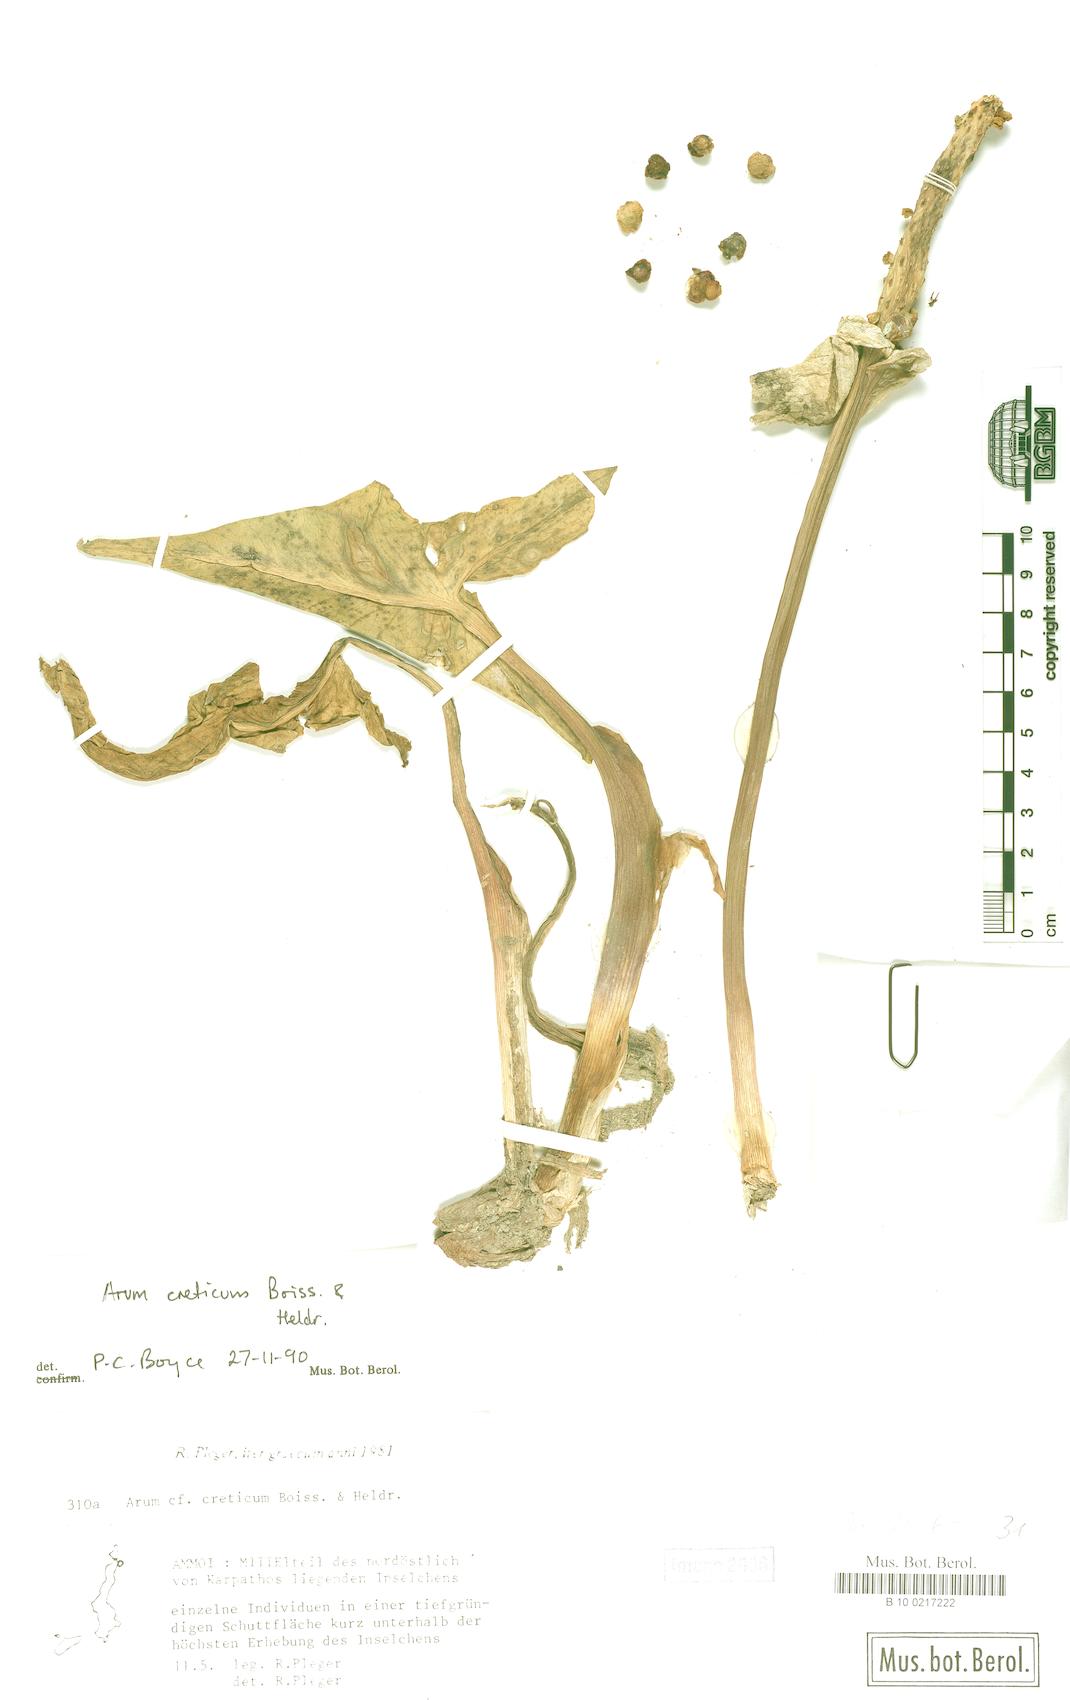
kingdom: Plantae
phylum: Tracheophyta
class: Liliopsida
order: Alismatales
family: Araceae
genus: Arum
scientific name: Arum creticum
